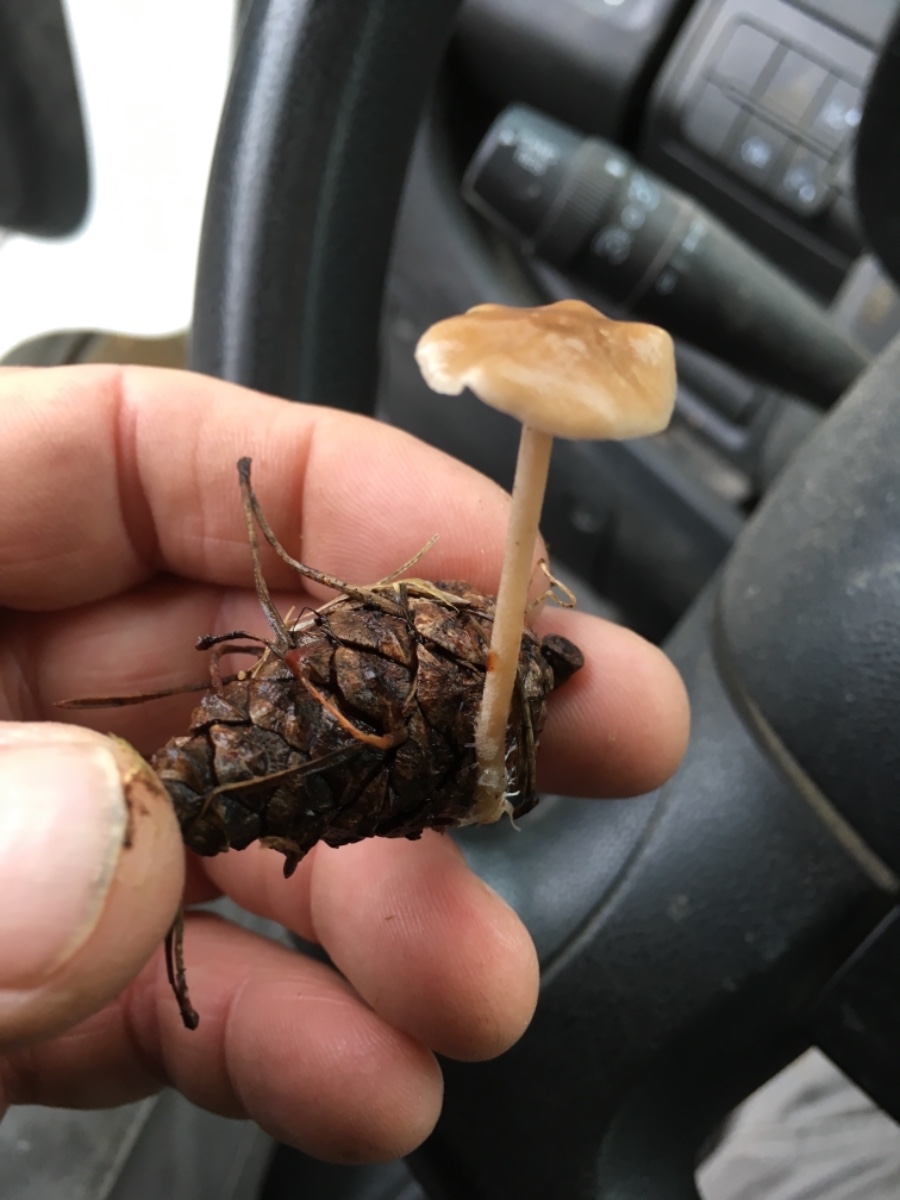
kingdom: Fungi
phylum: Basidiomycota
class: Agaricomycetes
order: Agaricales
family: Marasmiaceae
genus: Baeospora
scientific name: Baeospora myosura
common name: koglebruskhat
